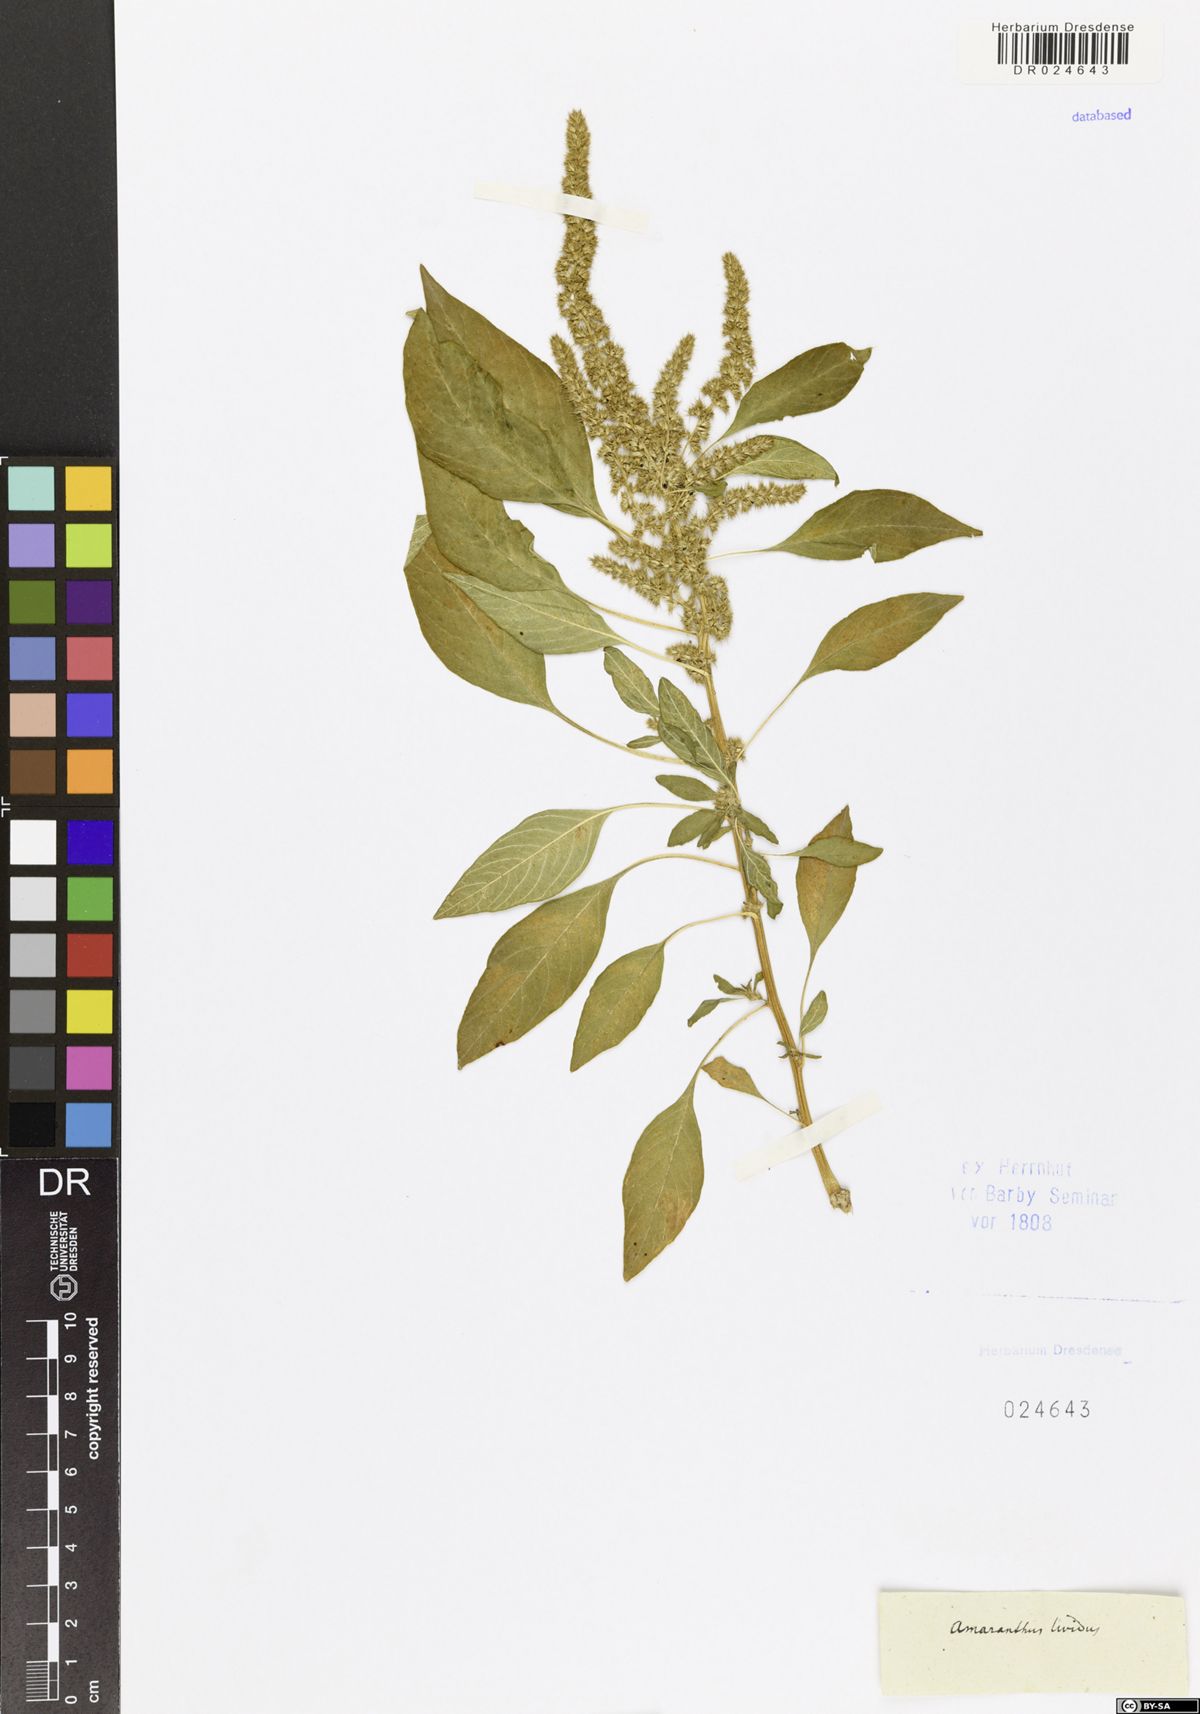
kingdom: Plantae
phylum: Tracheophyta
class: Magnoliopsida
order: Caryophyllales
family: Amaranthaceae
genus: Amaranthus
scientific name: Amaranthus blitum
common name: Purple amaranth
